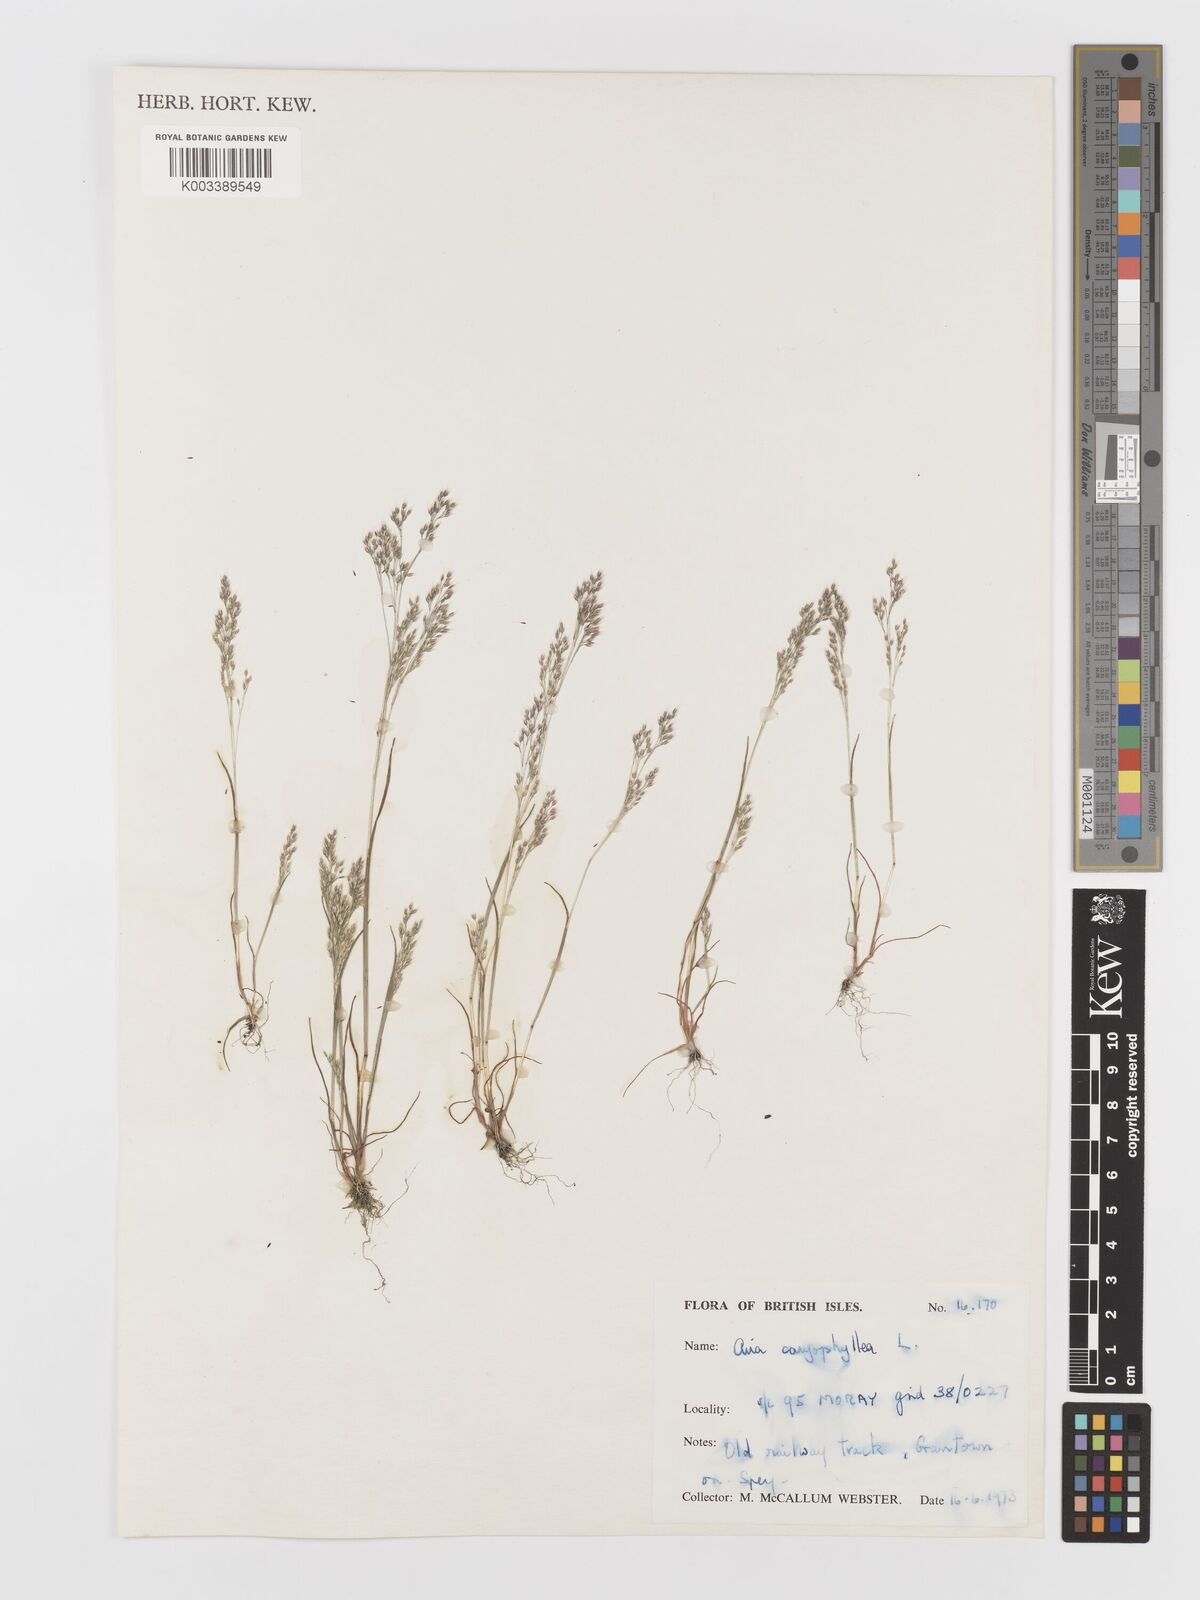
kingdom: Plantae
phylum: Tracheophyta
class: Liliopsida
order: Poales
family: Poaceae
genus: Aira
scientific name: Aira caryophyllea
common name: Silver hairgrass
